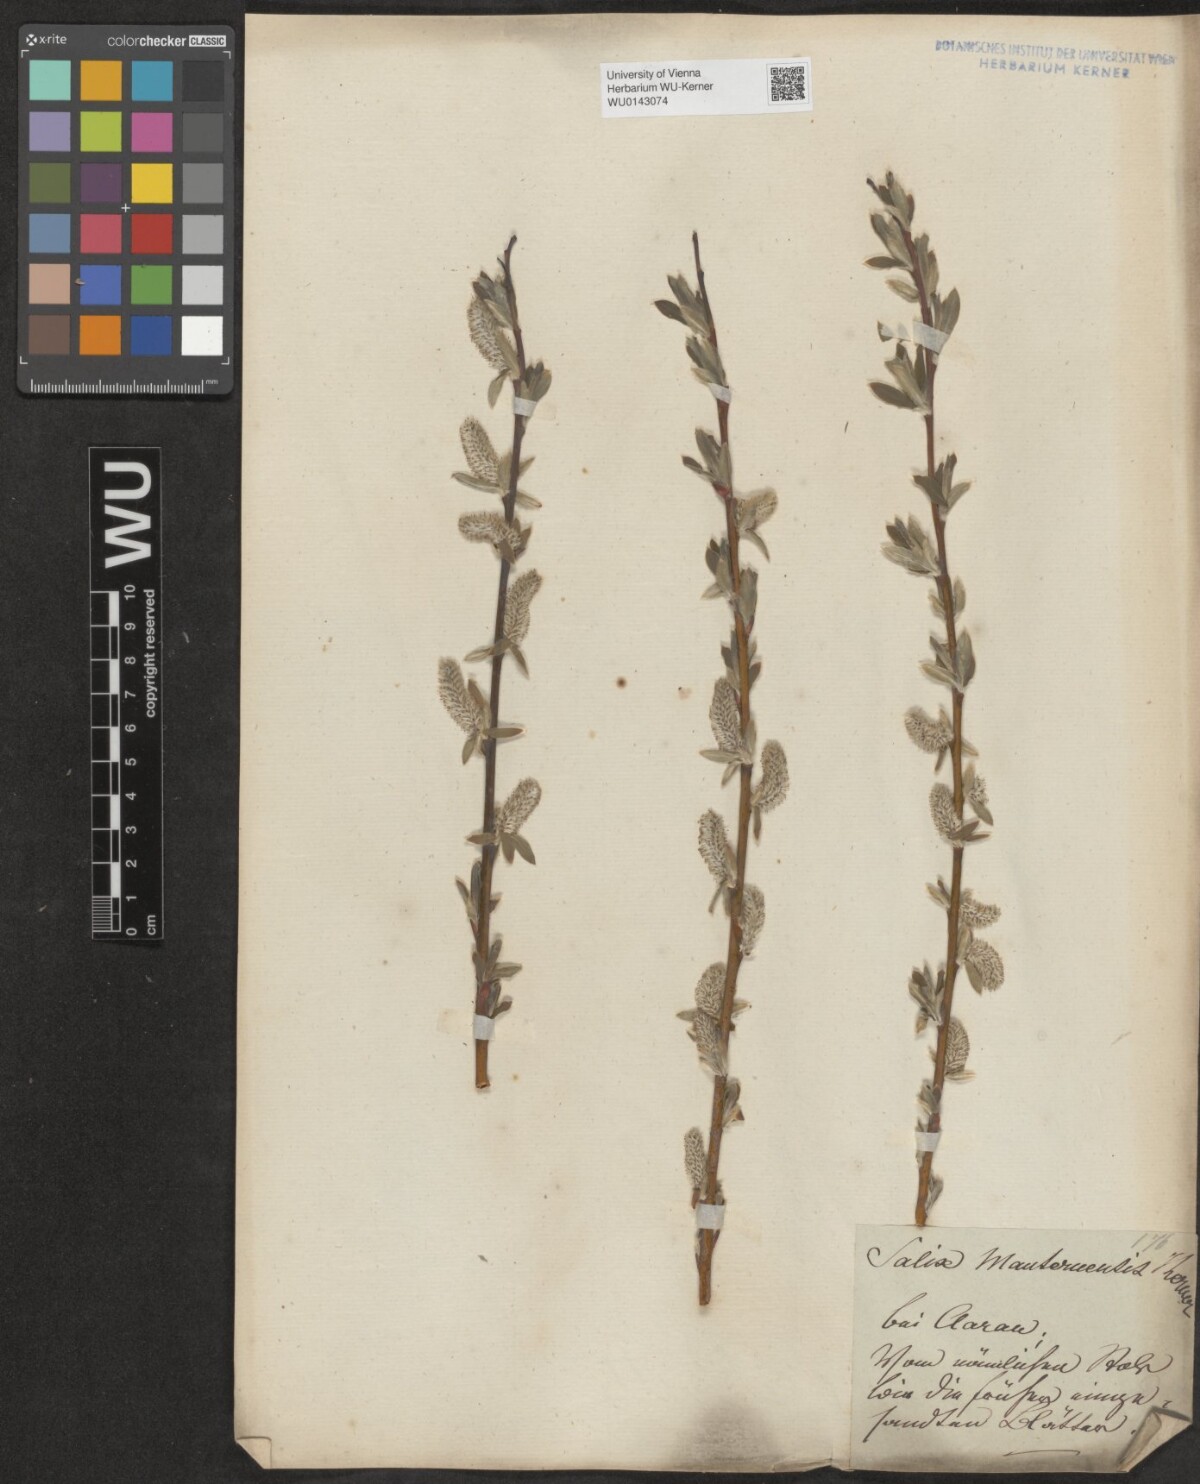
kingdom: Plantae
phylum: Tracheophyta
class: Magnoliopsida
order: Malpighiales
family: Salicaceae
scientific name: Salicaceae
